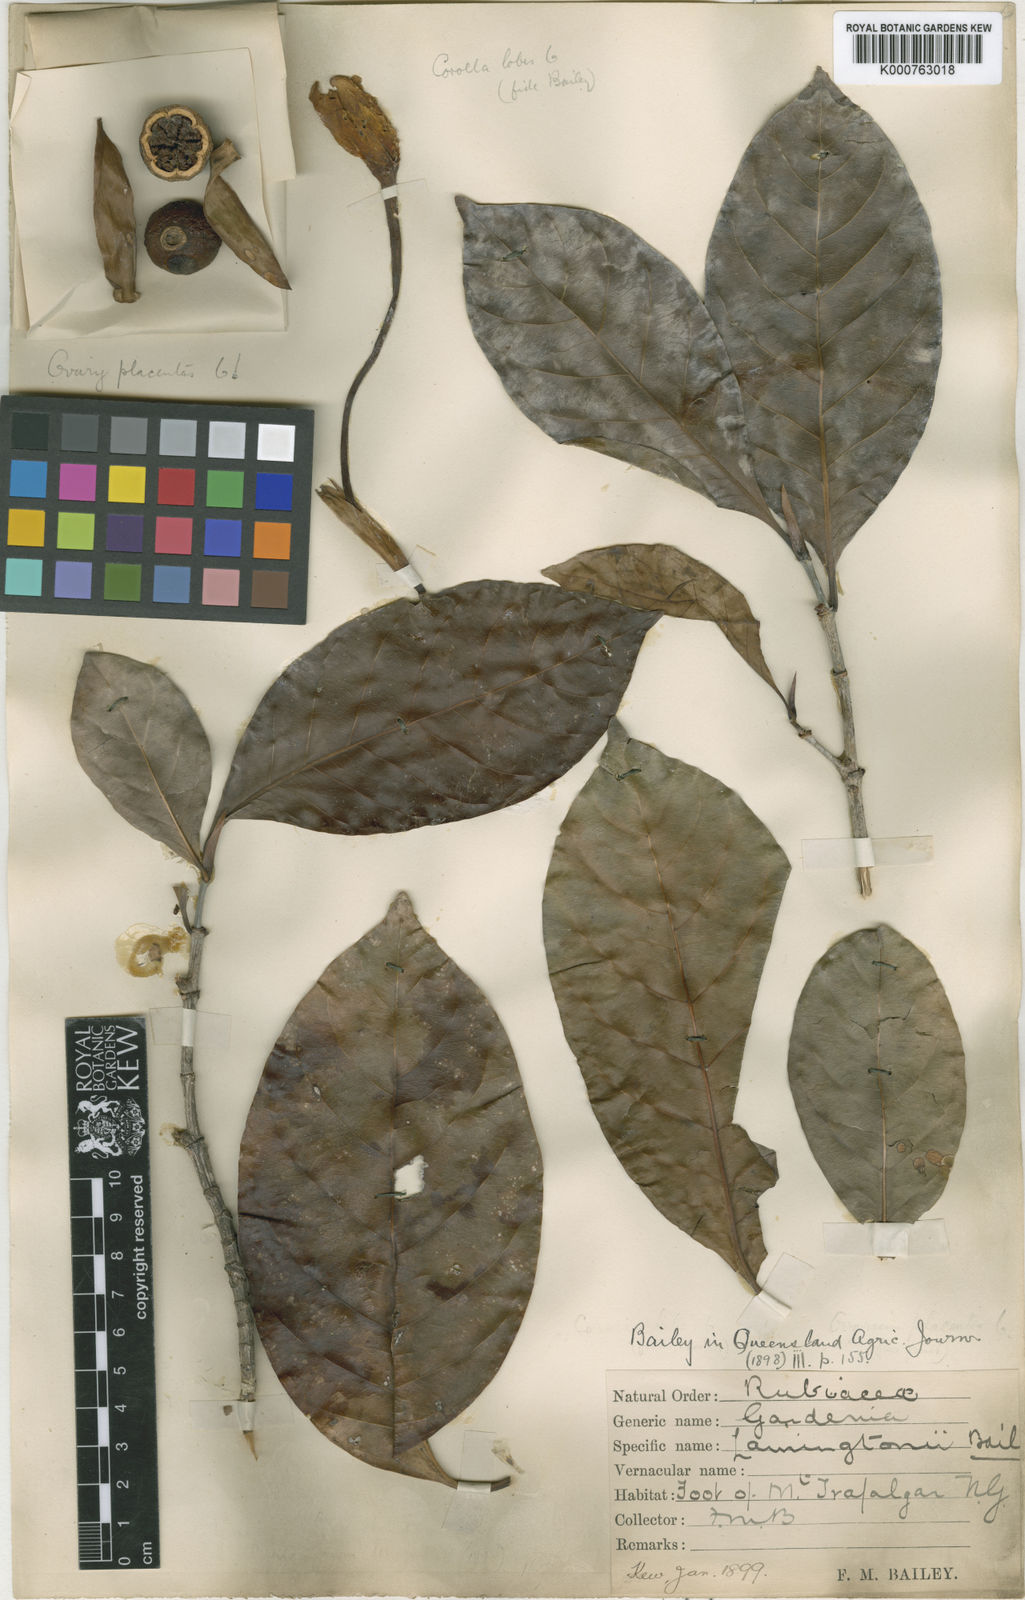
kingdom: Plantae
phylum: Tracheophyta
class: Magnoliopsida
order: Gentianales
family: Rubiaceae
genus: Gardenia
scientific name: Gardenia lamingtonii
